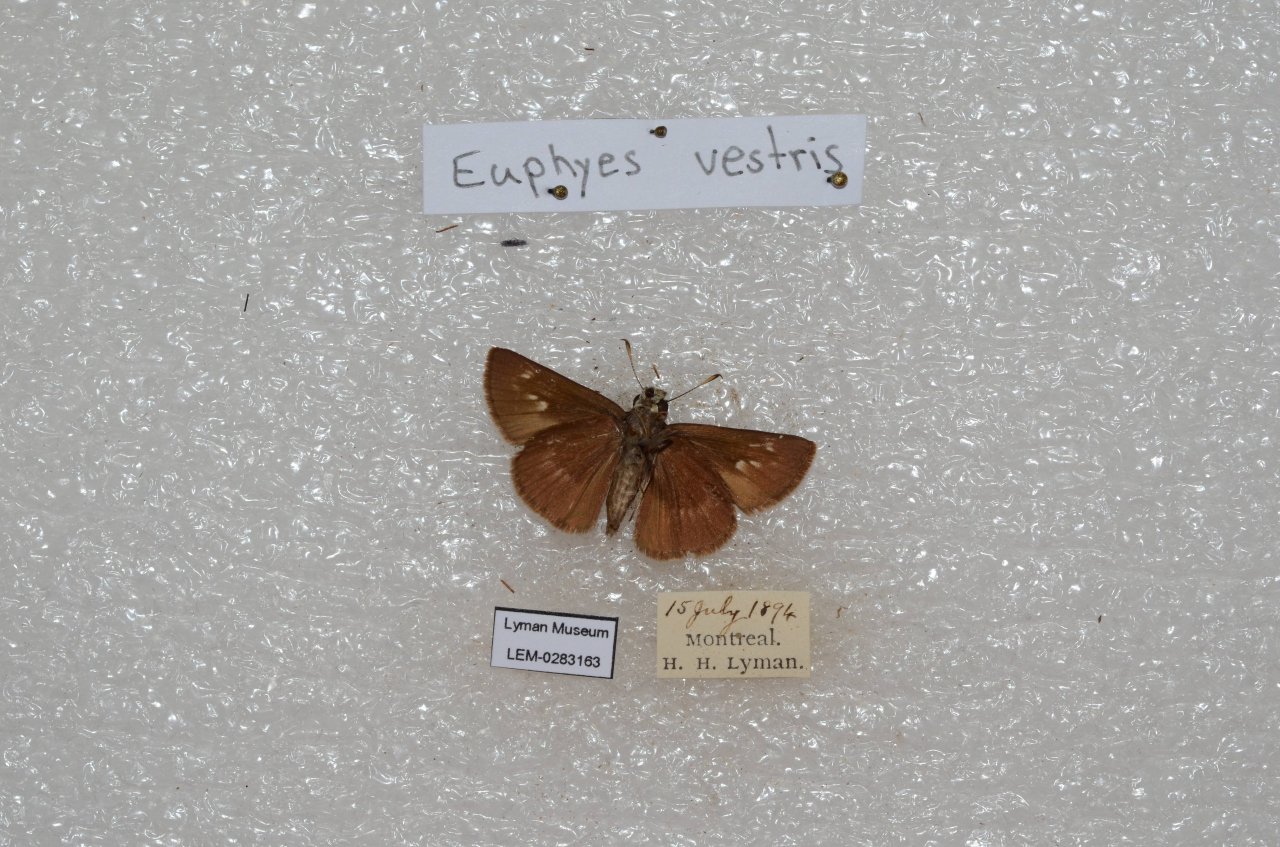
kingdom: Animalia
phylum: Arthropoda
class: Insecta
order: Lepidoptera
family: Hesperiidae
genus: Euphyes
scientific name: Euphyes vestris
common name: Dun Skipper
